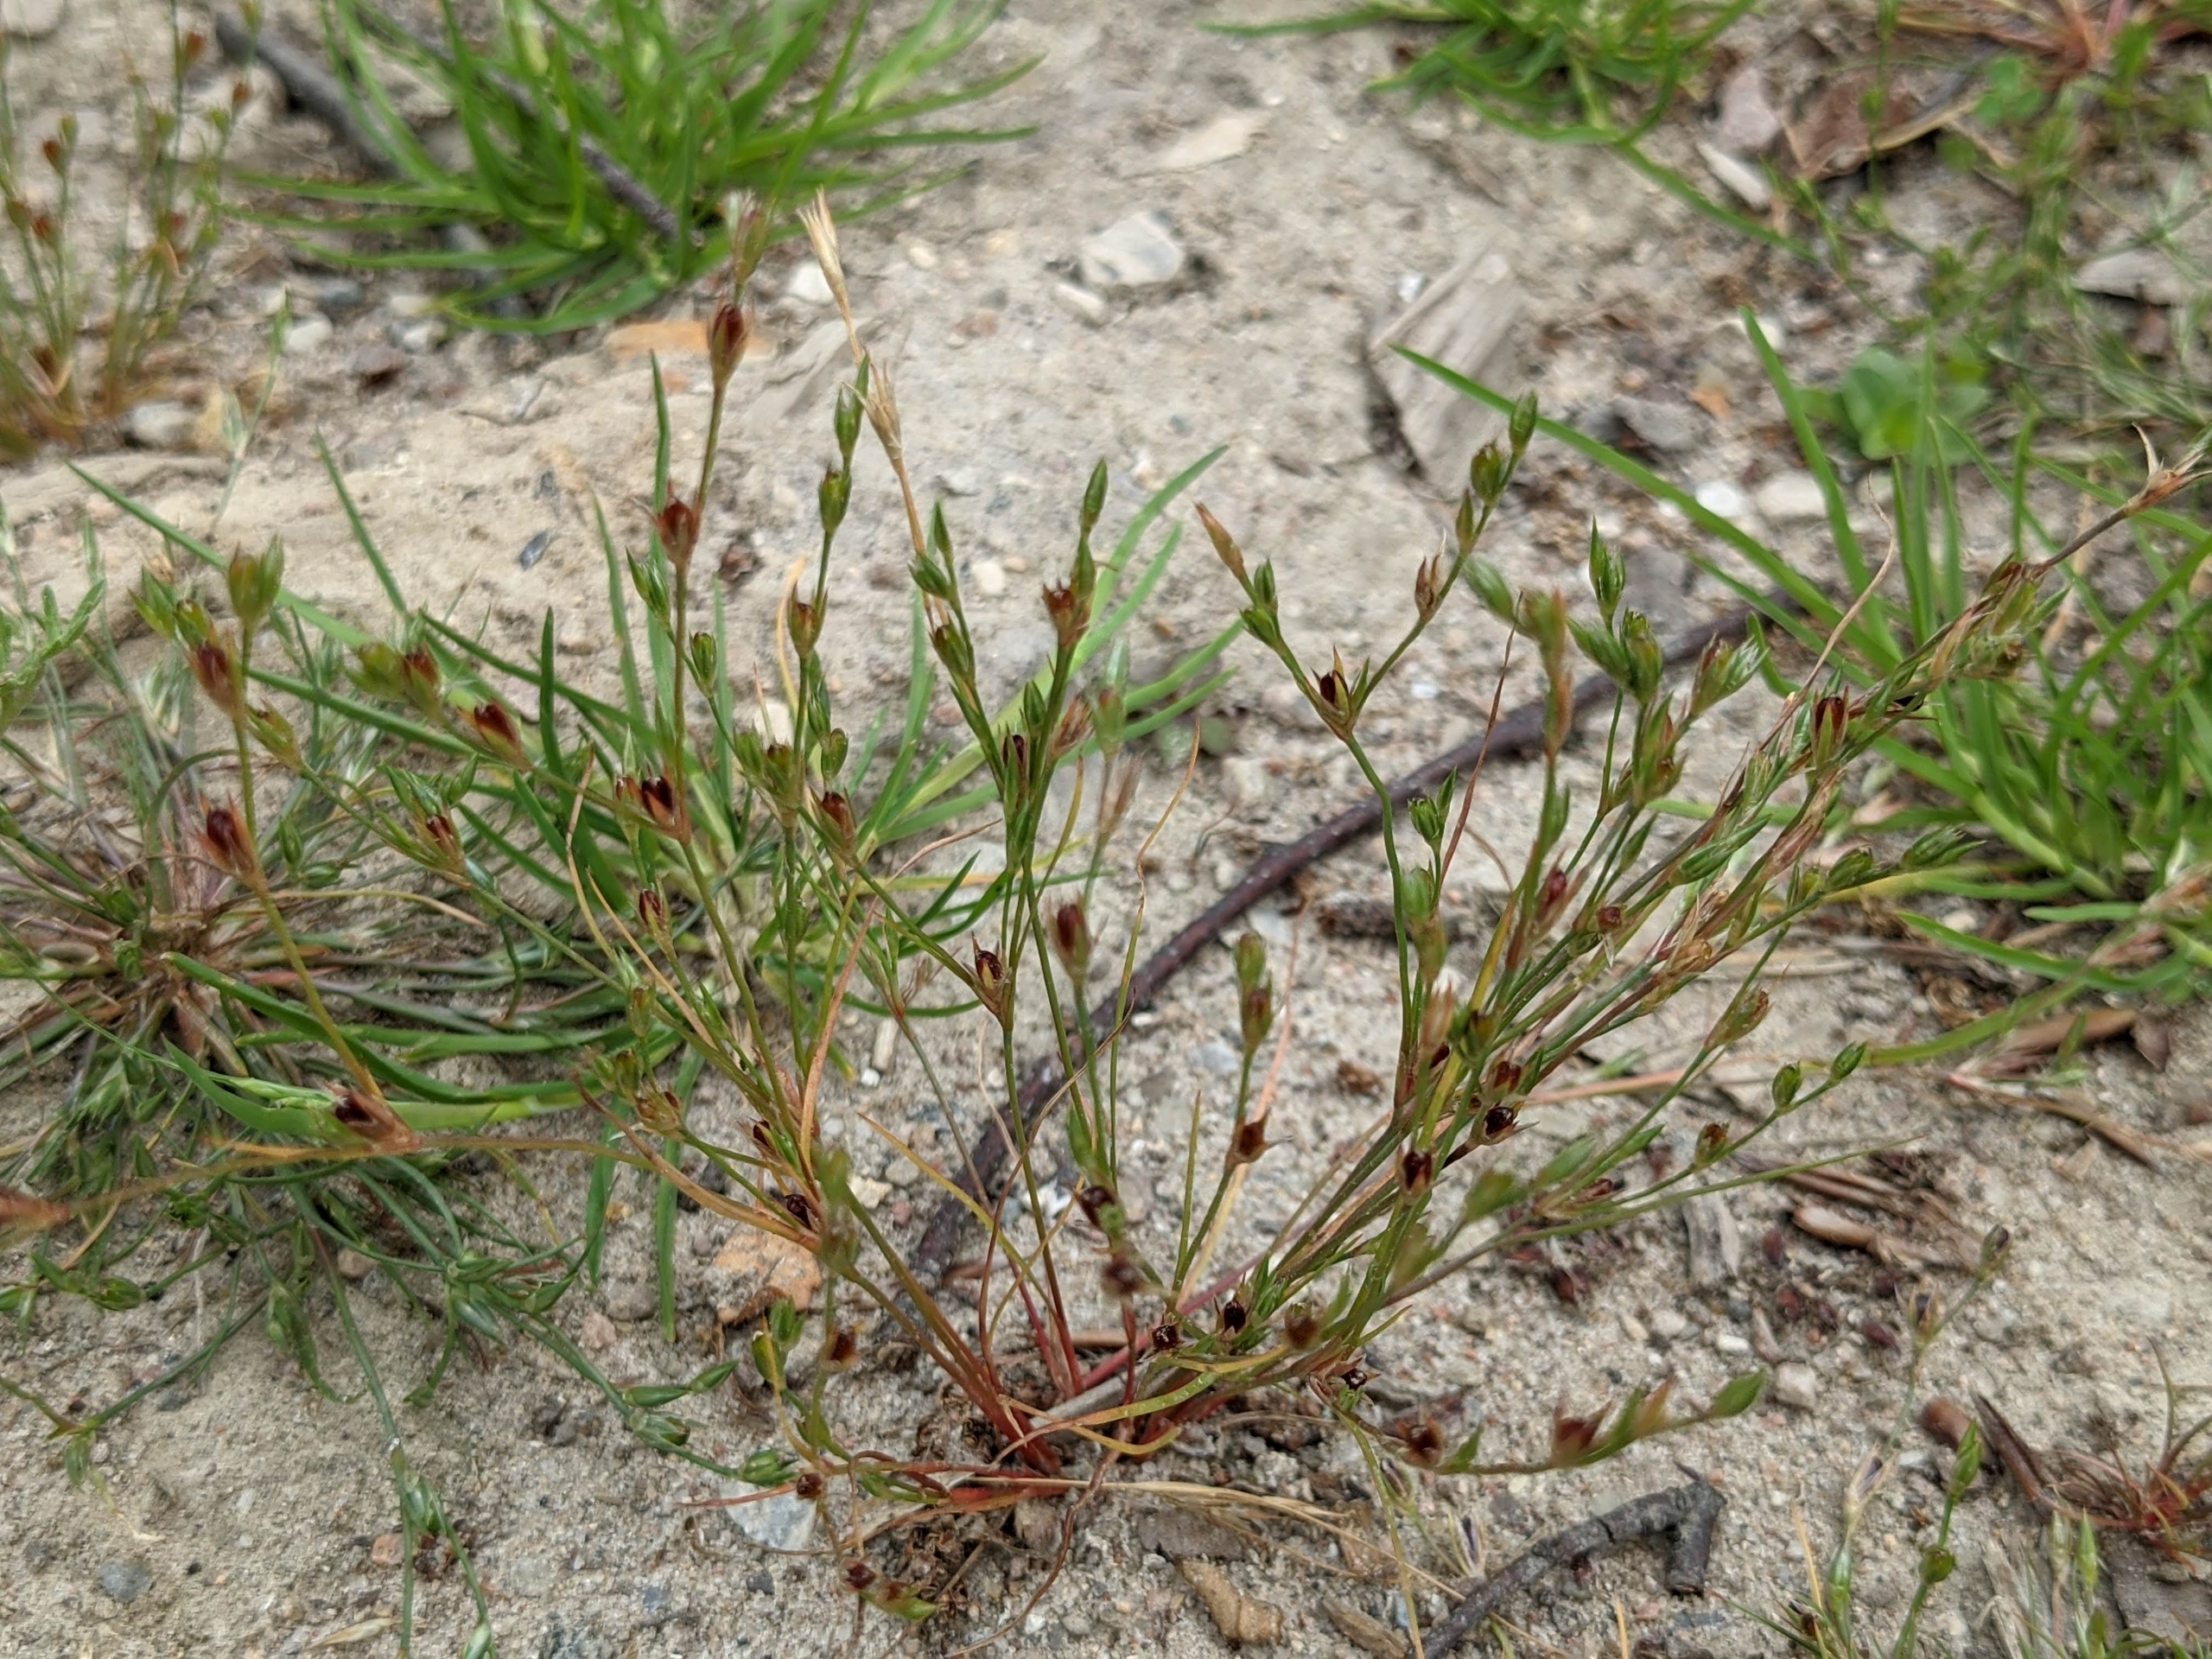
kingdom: Plantae
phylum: Tracheophyta
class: Liliopsida
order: Poales
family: Juncaceae
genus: Juncus
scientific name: Juncus bufonius
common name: Tudse-siv
